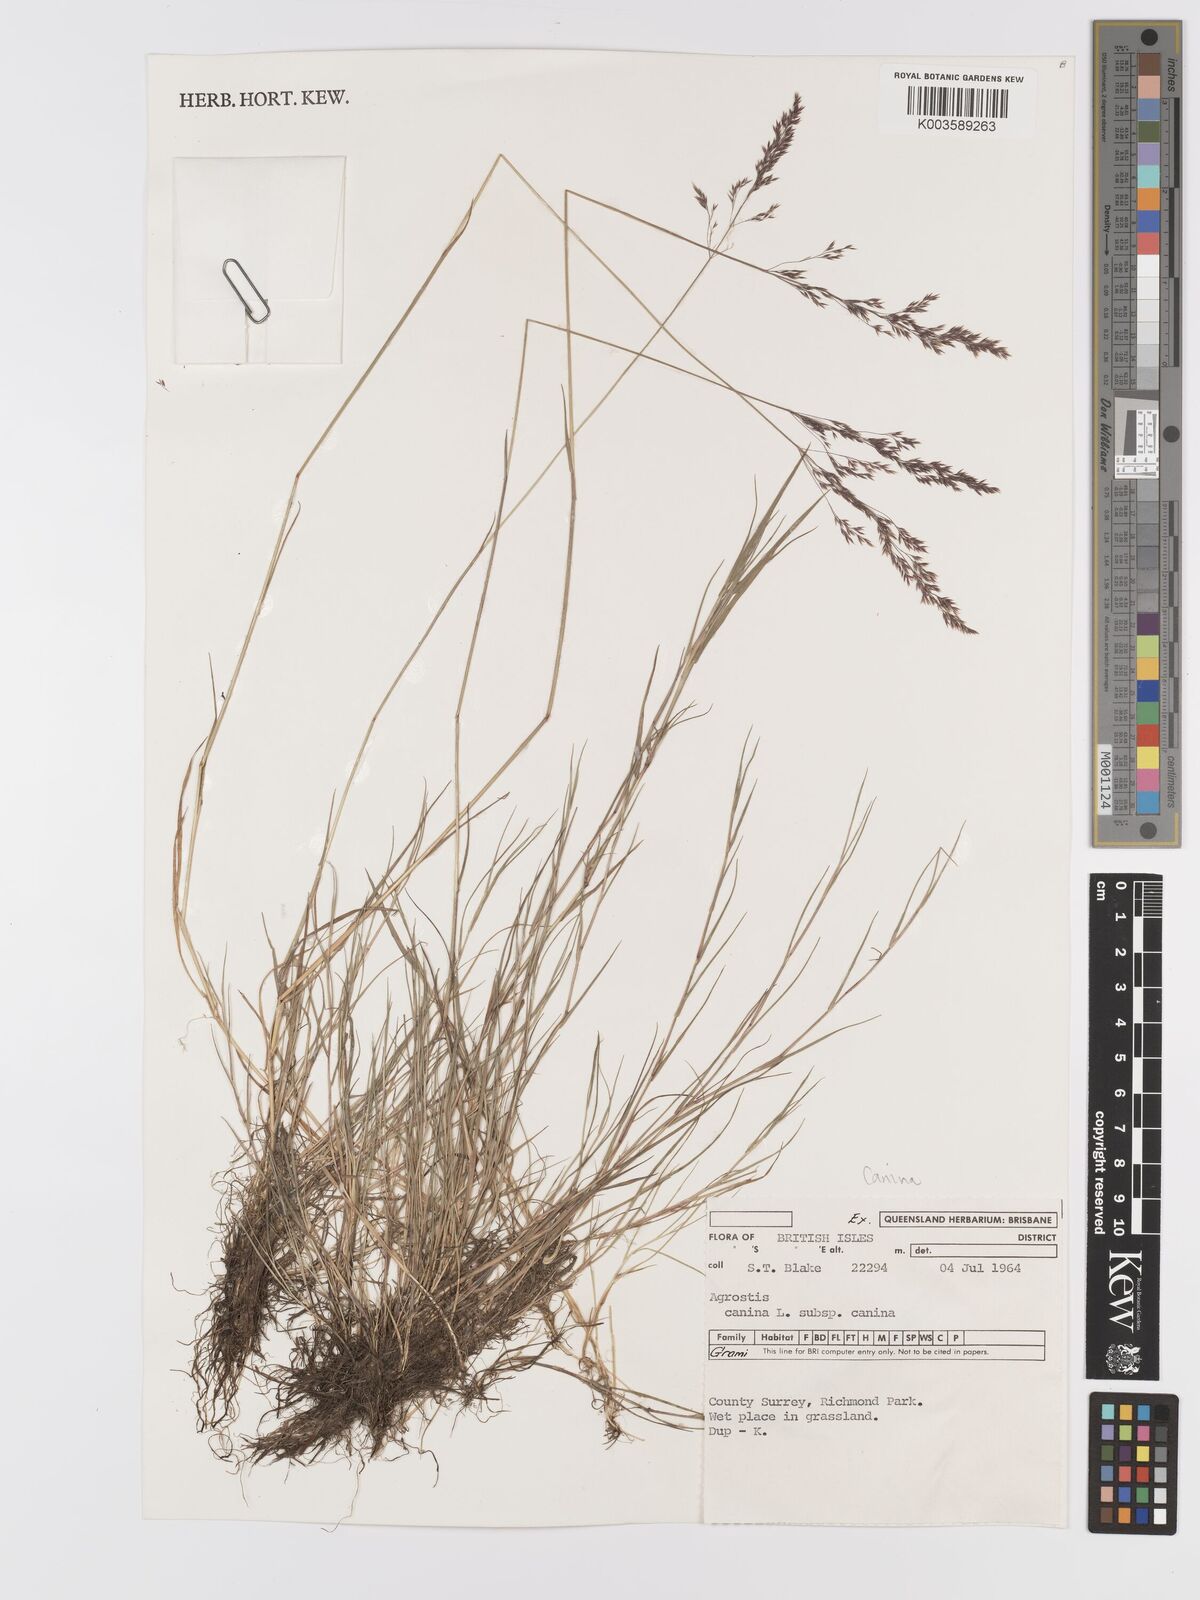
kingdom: Plantae
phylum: Tracheophyta
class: Liliopsida
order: Poales
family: Poaceae
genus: Agrostis
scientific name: Agrostis canina
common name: Velvet bent
